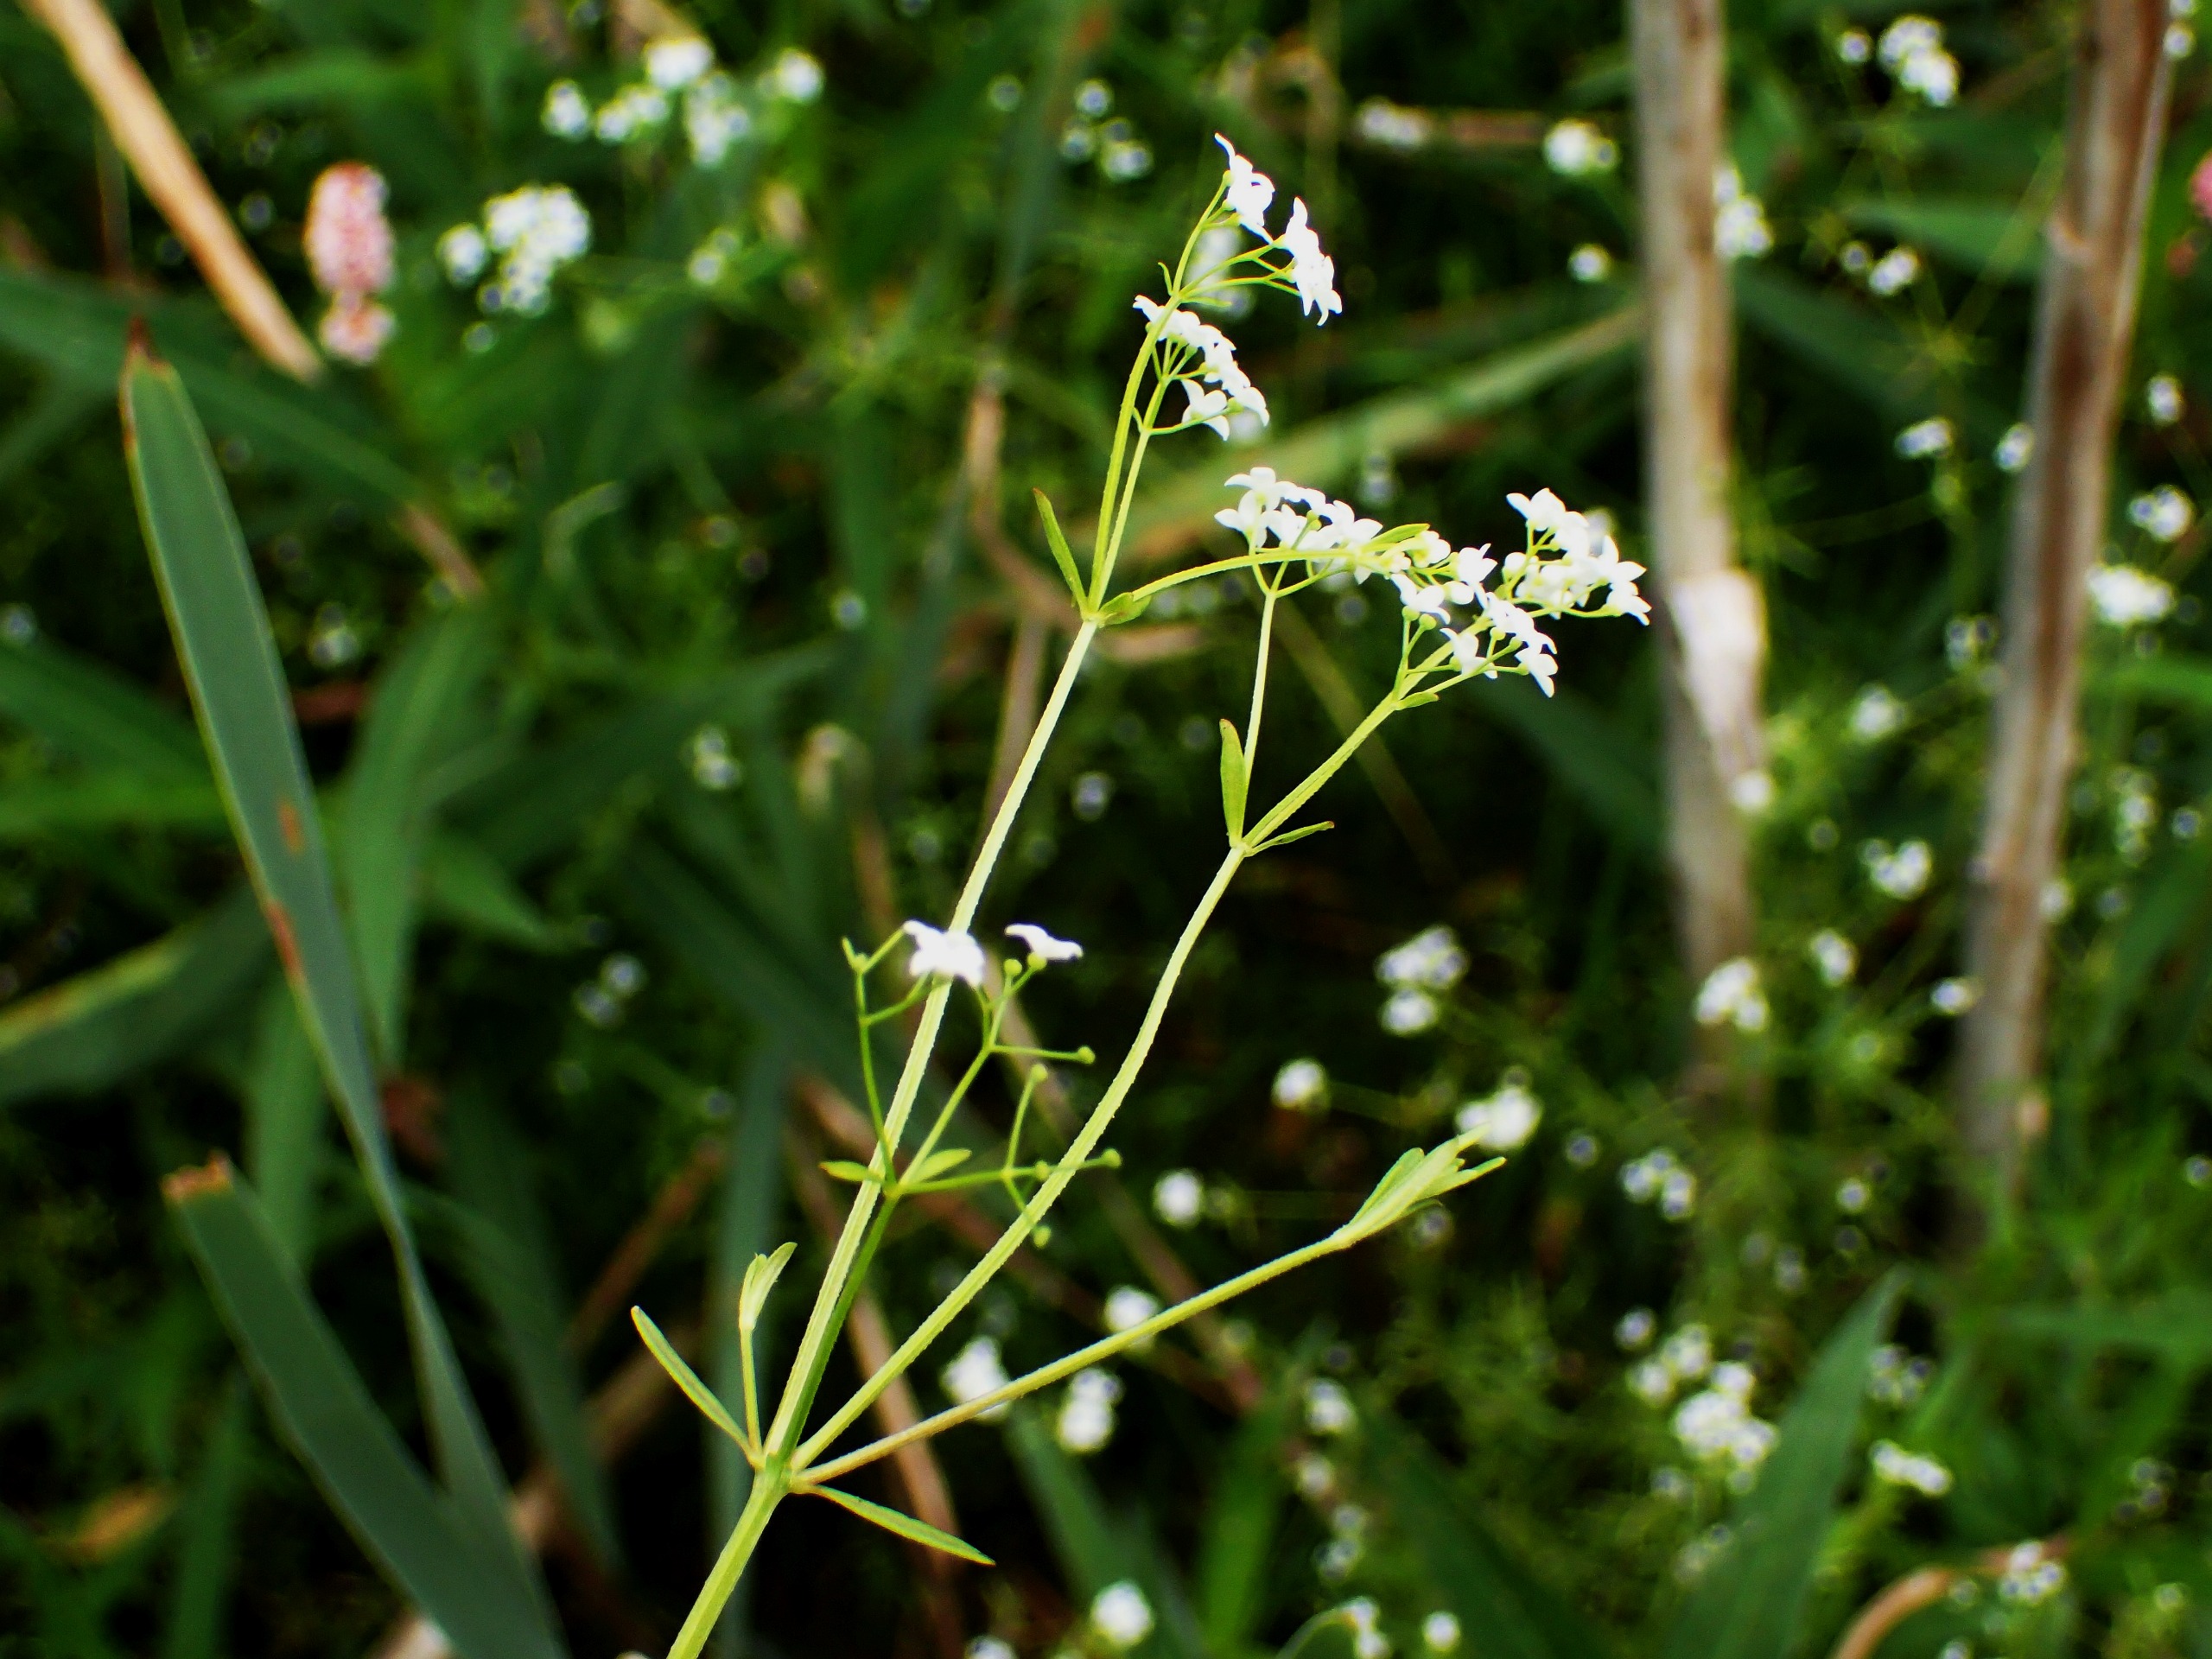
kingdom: Plantae
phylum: Tracheophyta
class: Magnoliopsida
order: Gentianales
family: Rubiaceae
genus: Galium
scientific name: Galium palustre
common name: Kær-snerre
